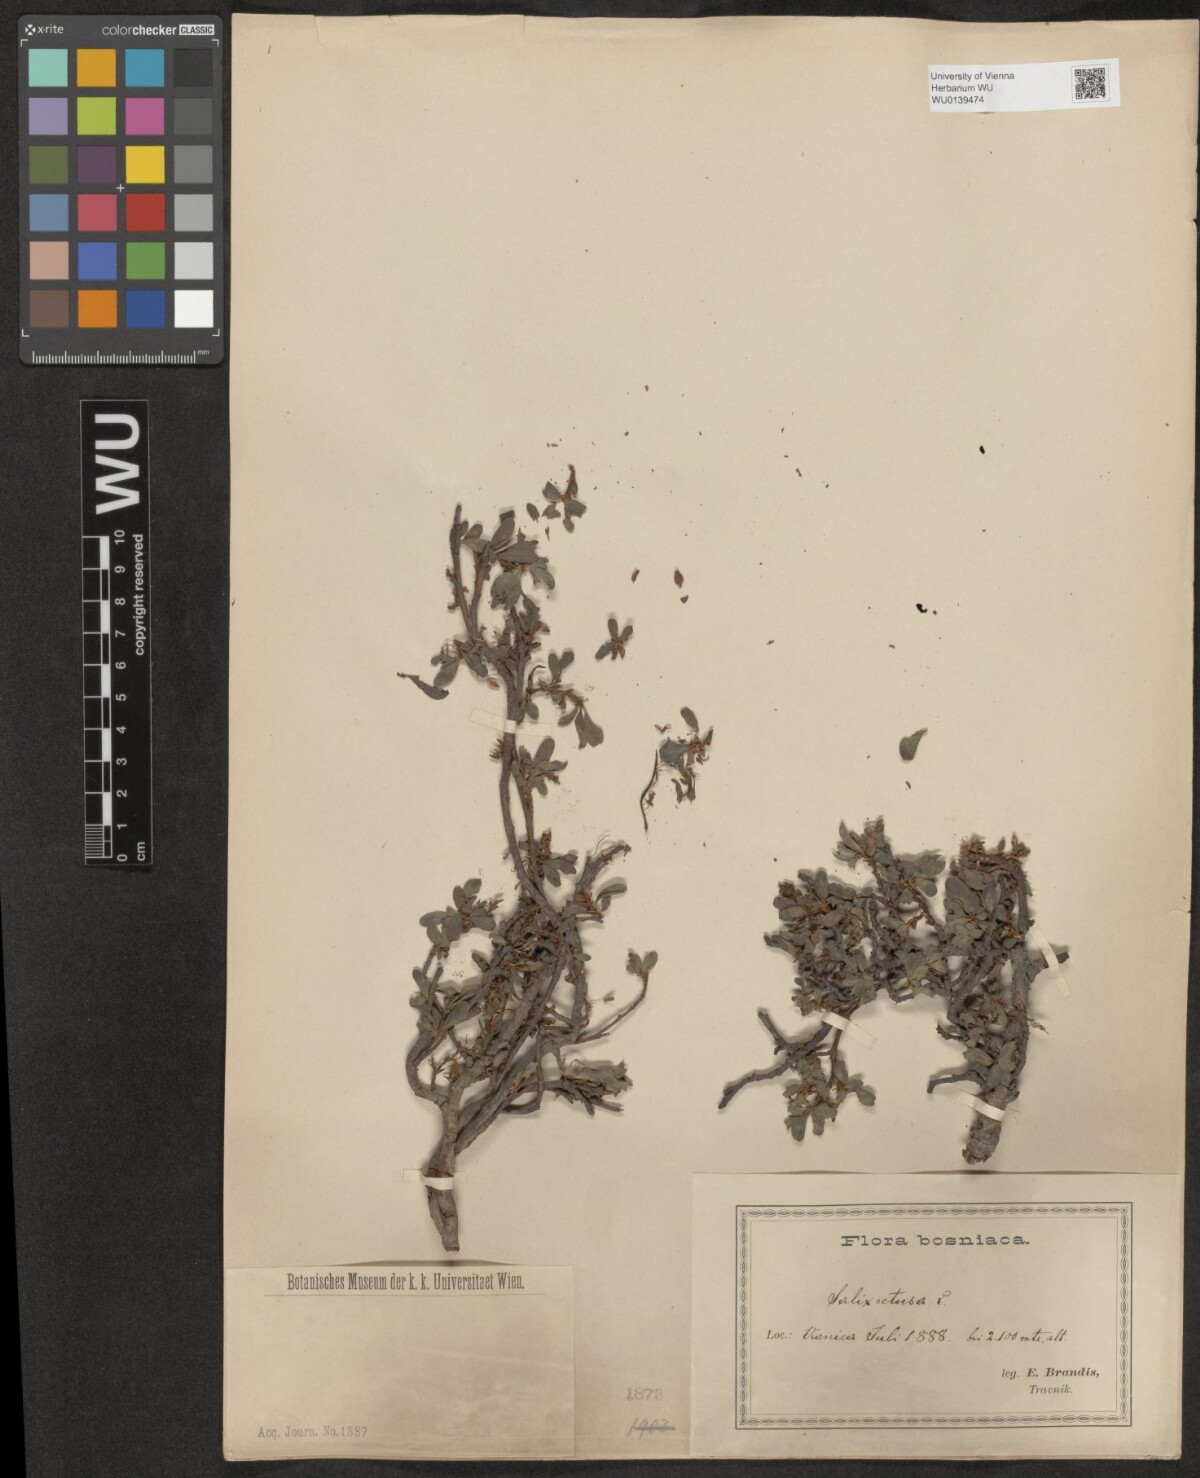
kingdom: Plantae
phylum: Tracheophyta
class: Magnoliopsida
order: Malpighiales
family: Salicaceae
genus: Salix
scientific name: Salix retusa
